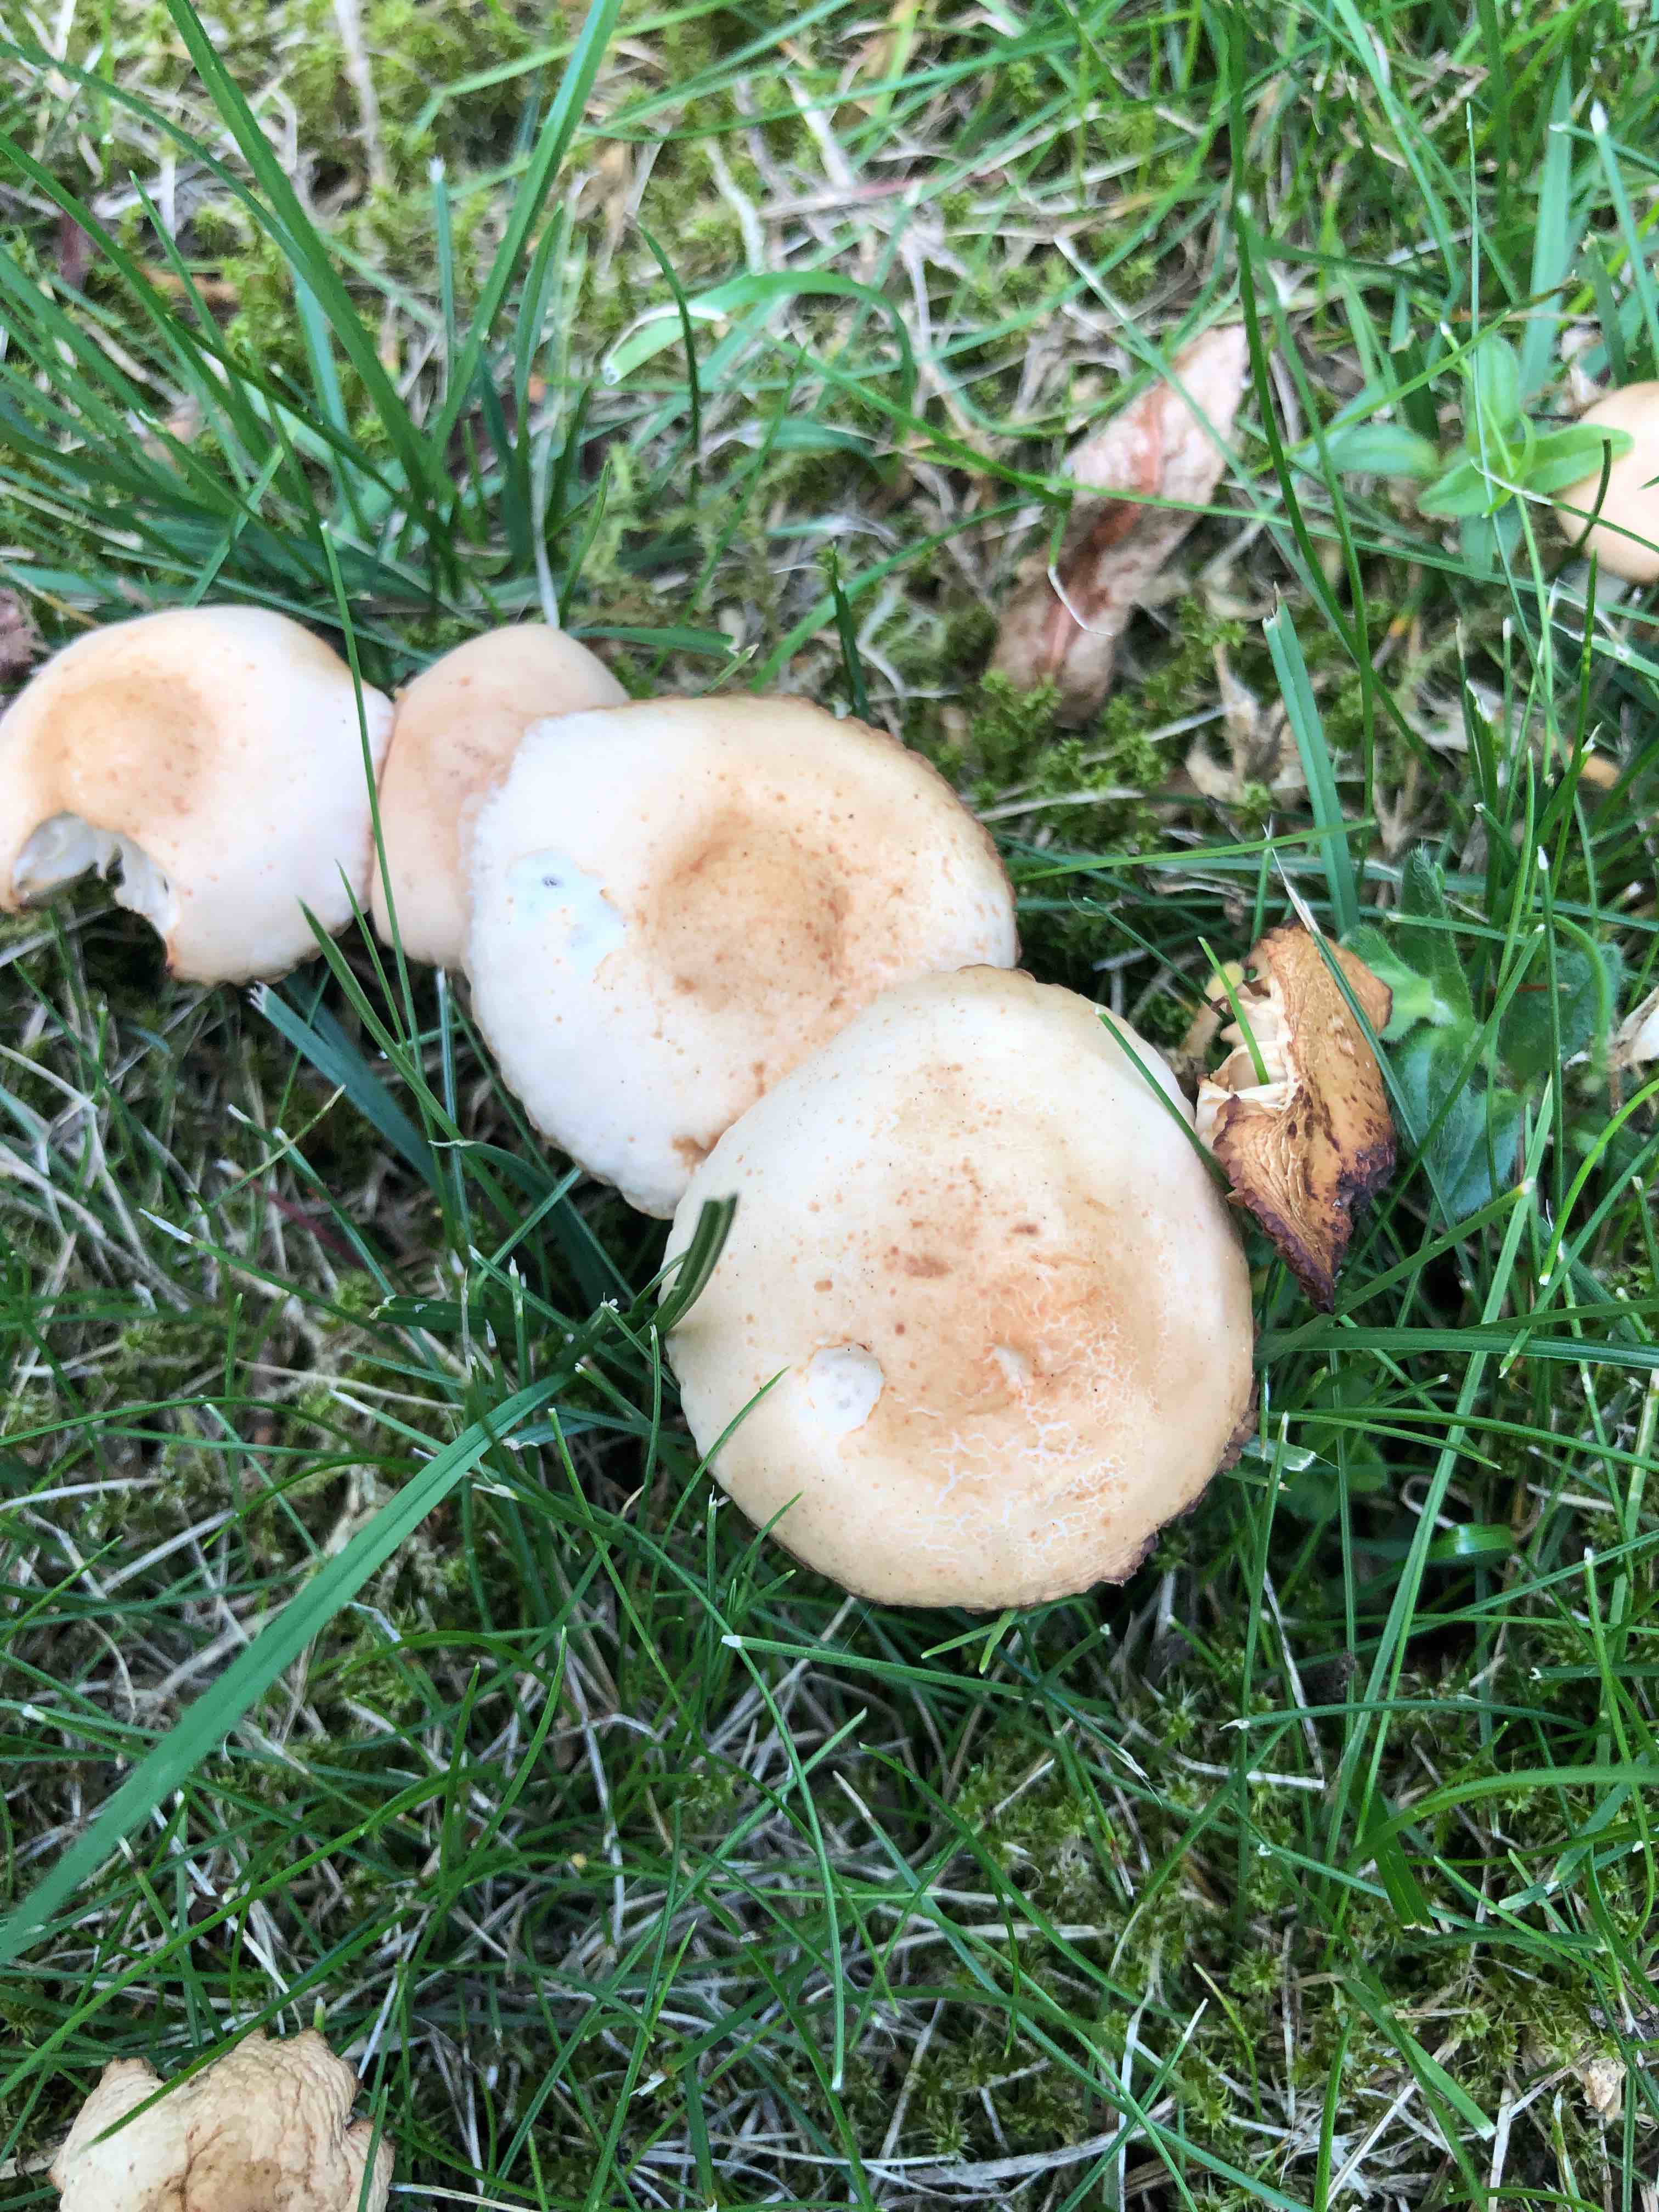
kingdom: Fungi
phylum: Basidiomycota
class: Agaricomycetes
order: Agaricales
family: Marasmiaceae
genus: Marasmius
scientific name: Marasmius oreades
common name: elledans-bruskhat
